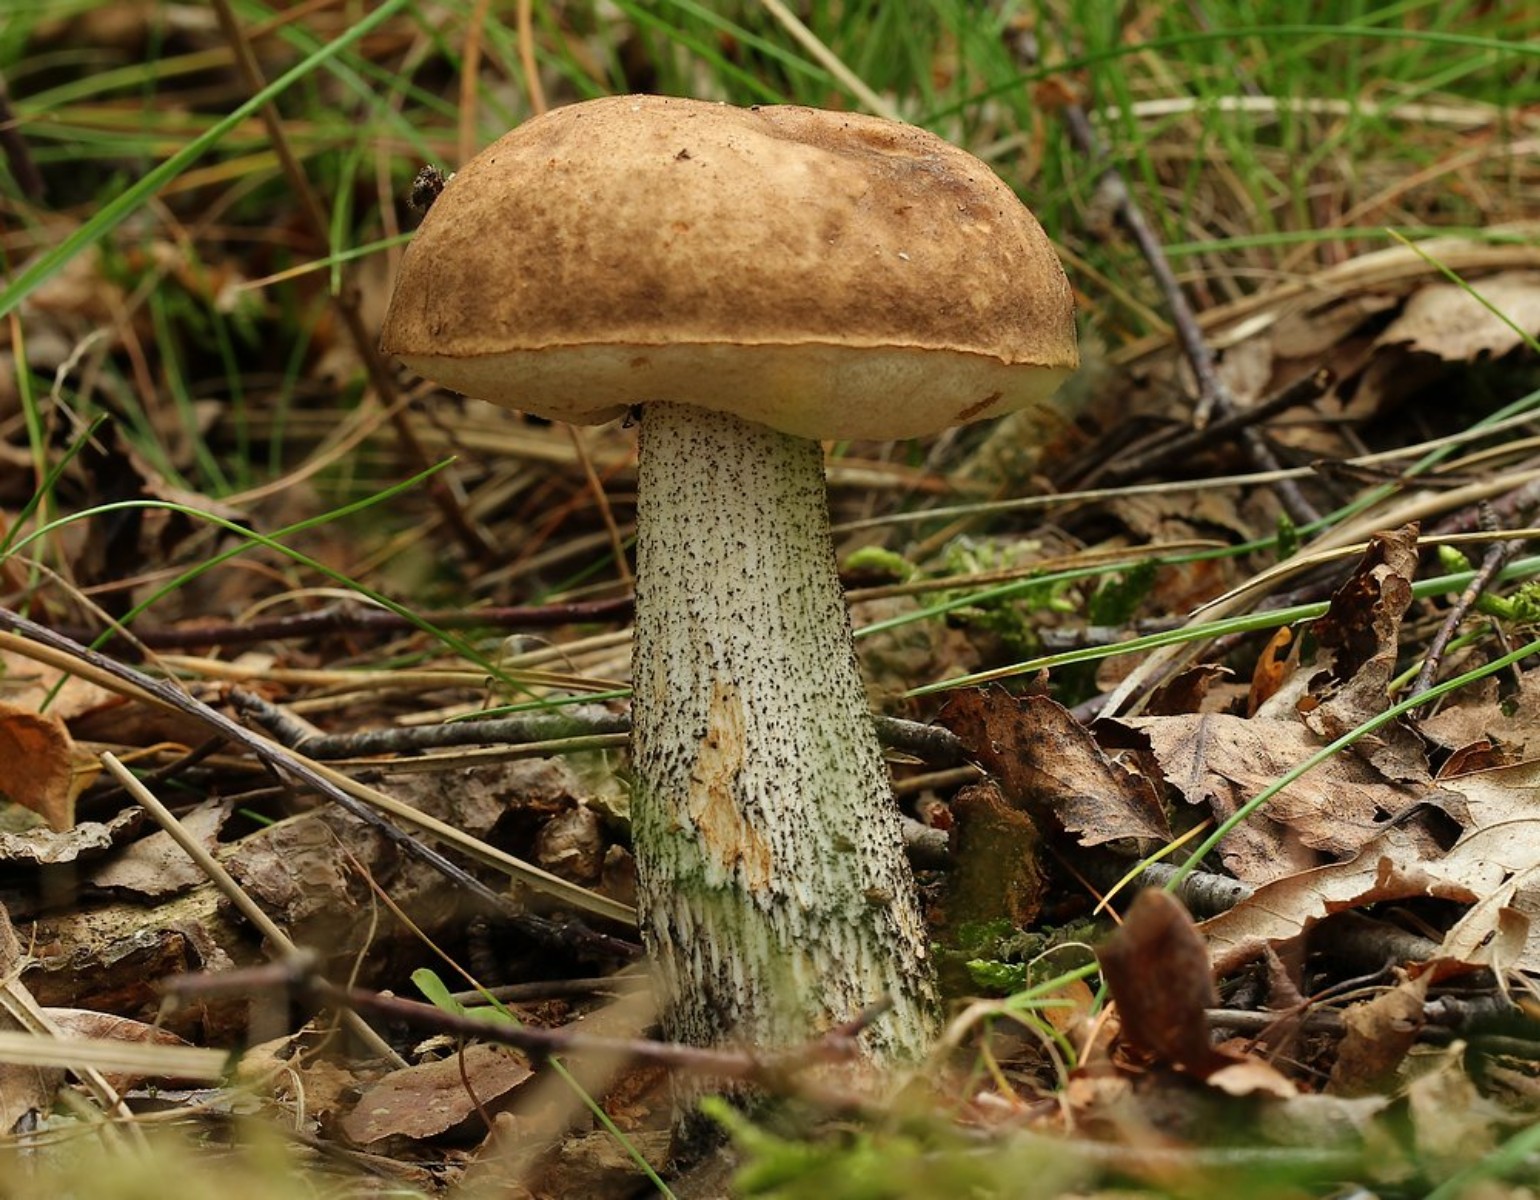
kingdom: Fungi
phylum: Basidiomycota
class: Agaricomycetes
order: Boletales
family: Boletaceae
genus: Leccinum
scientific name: Leccinum scabrum
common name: brun skælrørhat
